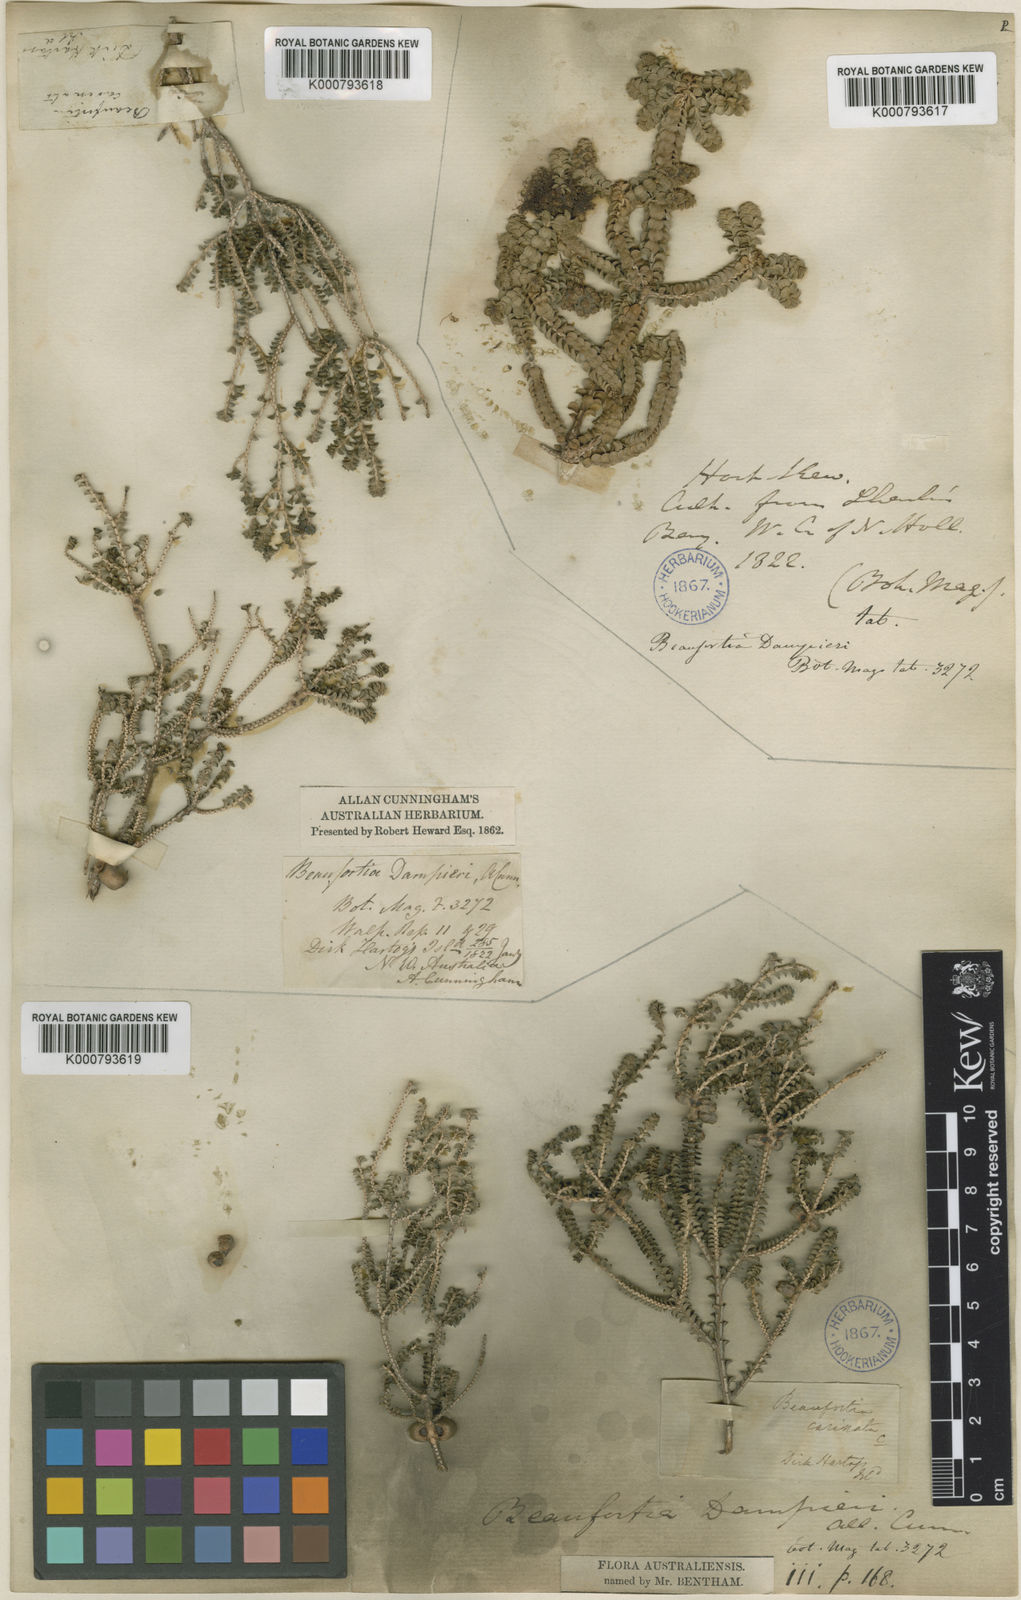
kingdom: Plantae
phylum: Tracheophyta
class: Magnoliopsida
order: Myrtales
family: Myrtaceae
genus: Melaleuca
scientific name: Melaleuca sprengelioides
